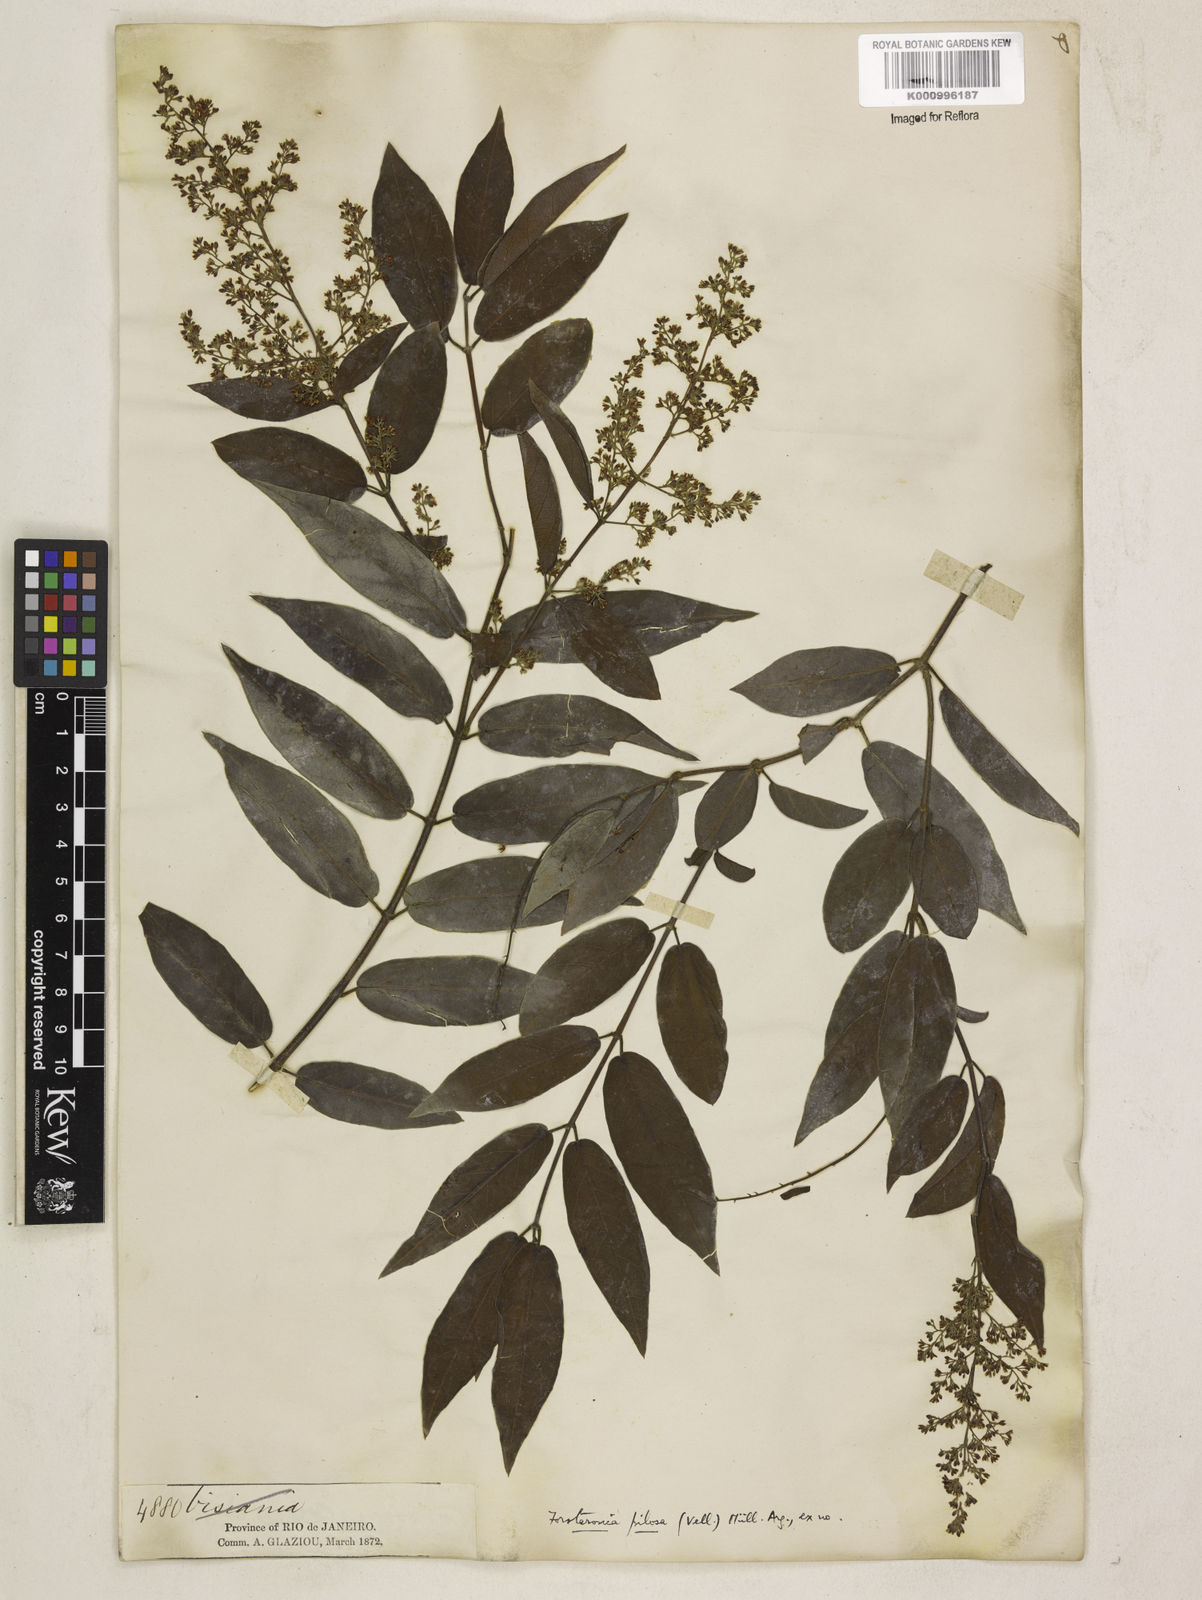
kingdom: Plantae
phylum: Tracheophyta
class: Magnoliopsida
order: Gentianales
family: Apocynaceae
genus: Forsteronia
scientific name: Forsteronia
